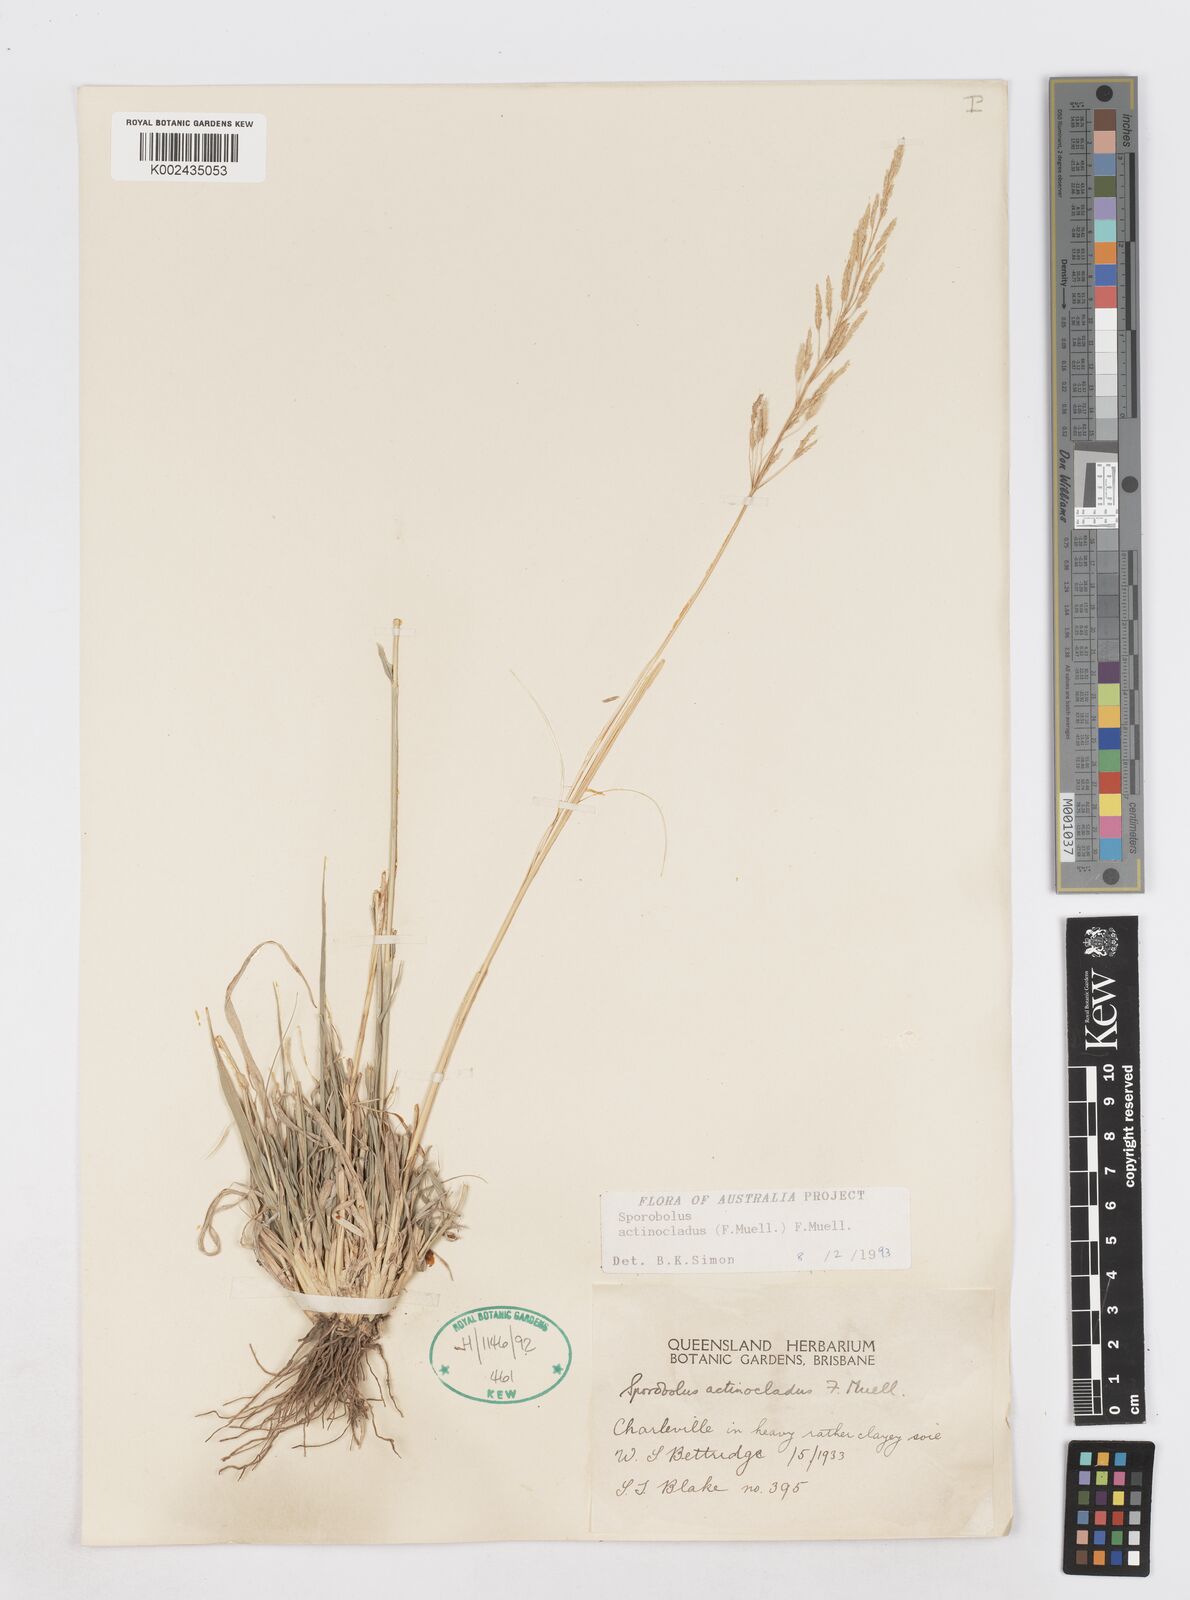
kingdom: Plantae
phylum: Tracheophyta
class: Liliopsida
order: Poales
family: Poaceae
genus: Sporobolus
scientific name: Sporobolus actinocladus
